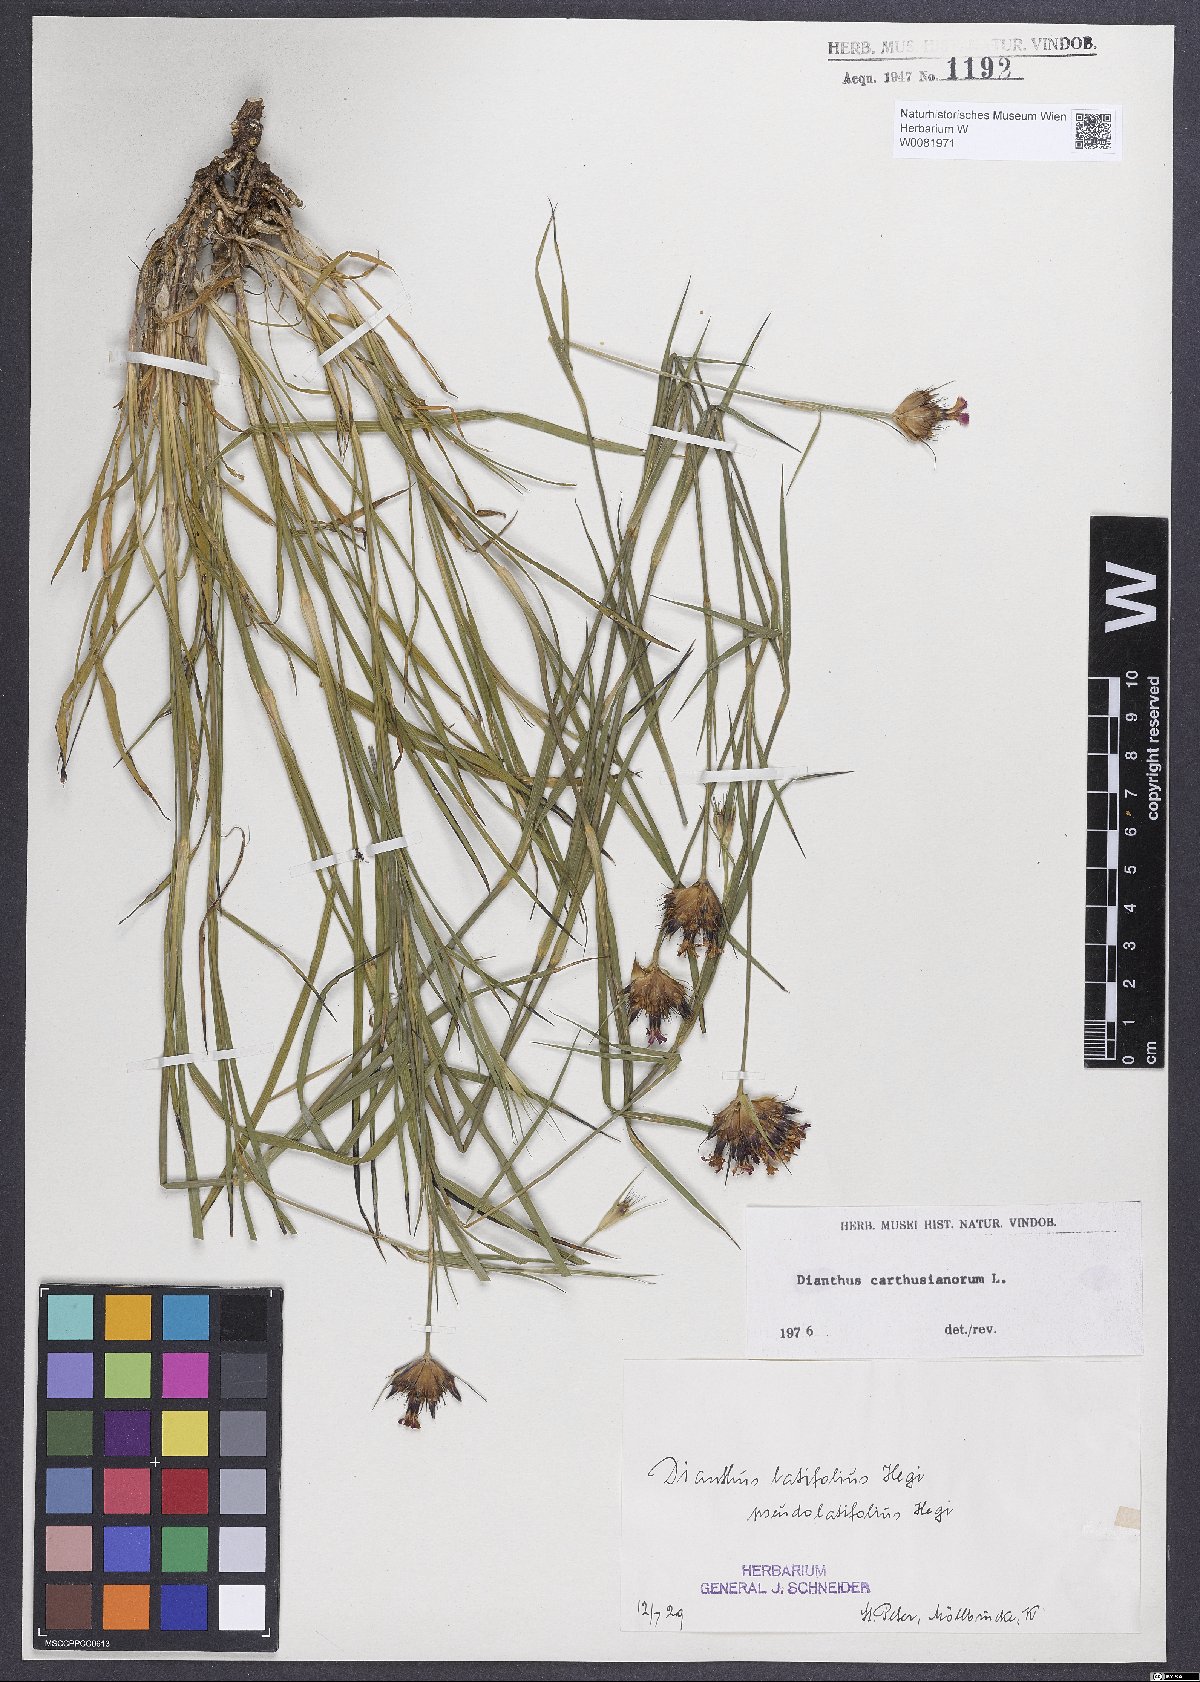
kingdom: Plantae
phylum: Tracheophyta
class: Magnoliopsida
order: Caryophyllales
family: Caryophyllaceae
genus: Dianthus
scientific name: Dianthus carthusianorum
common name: Carthusian pink
